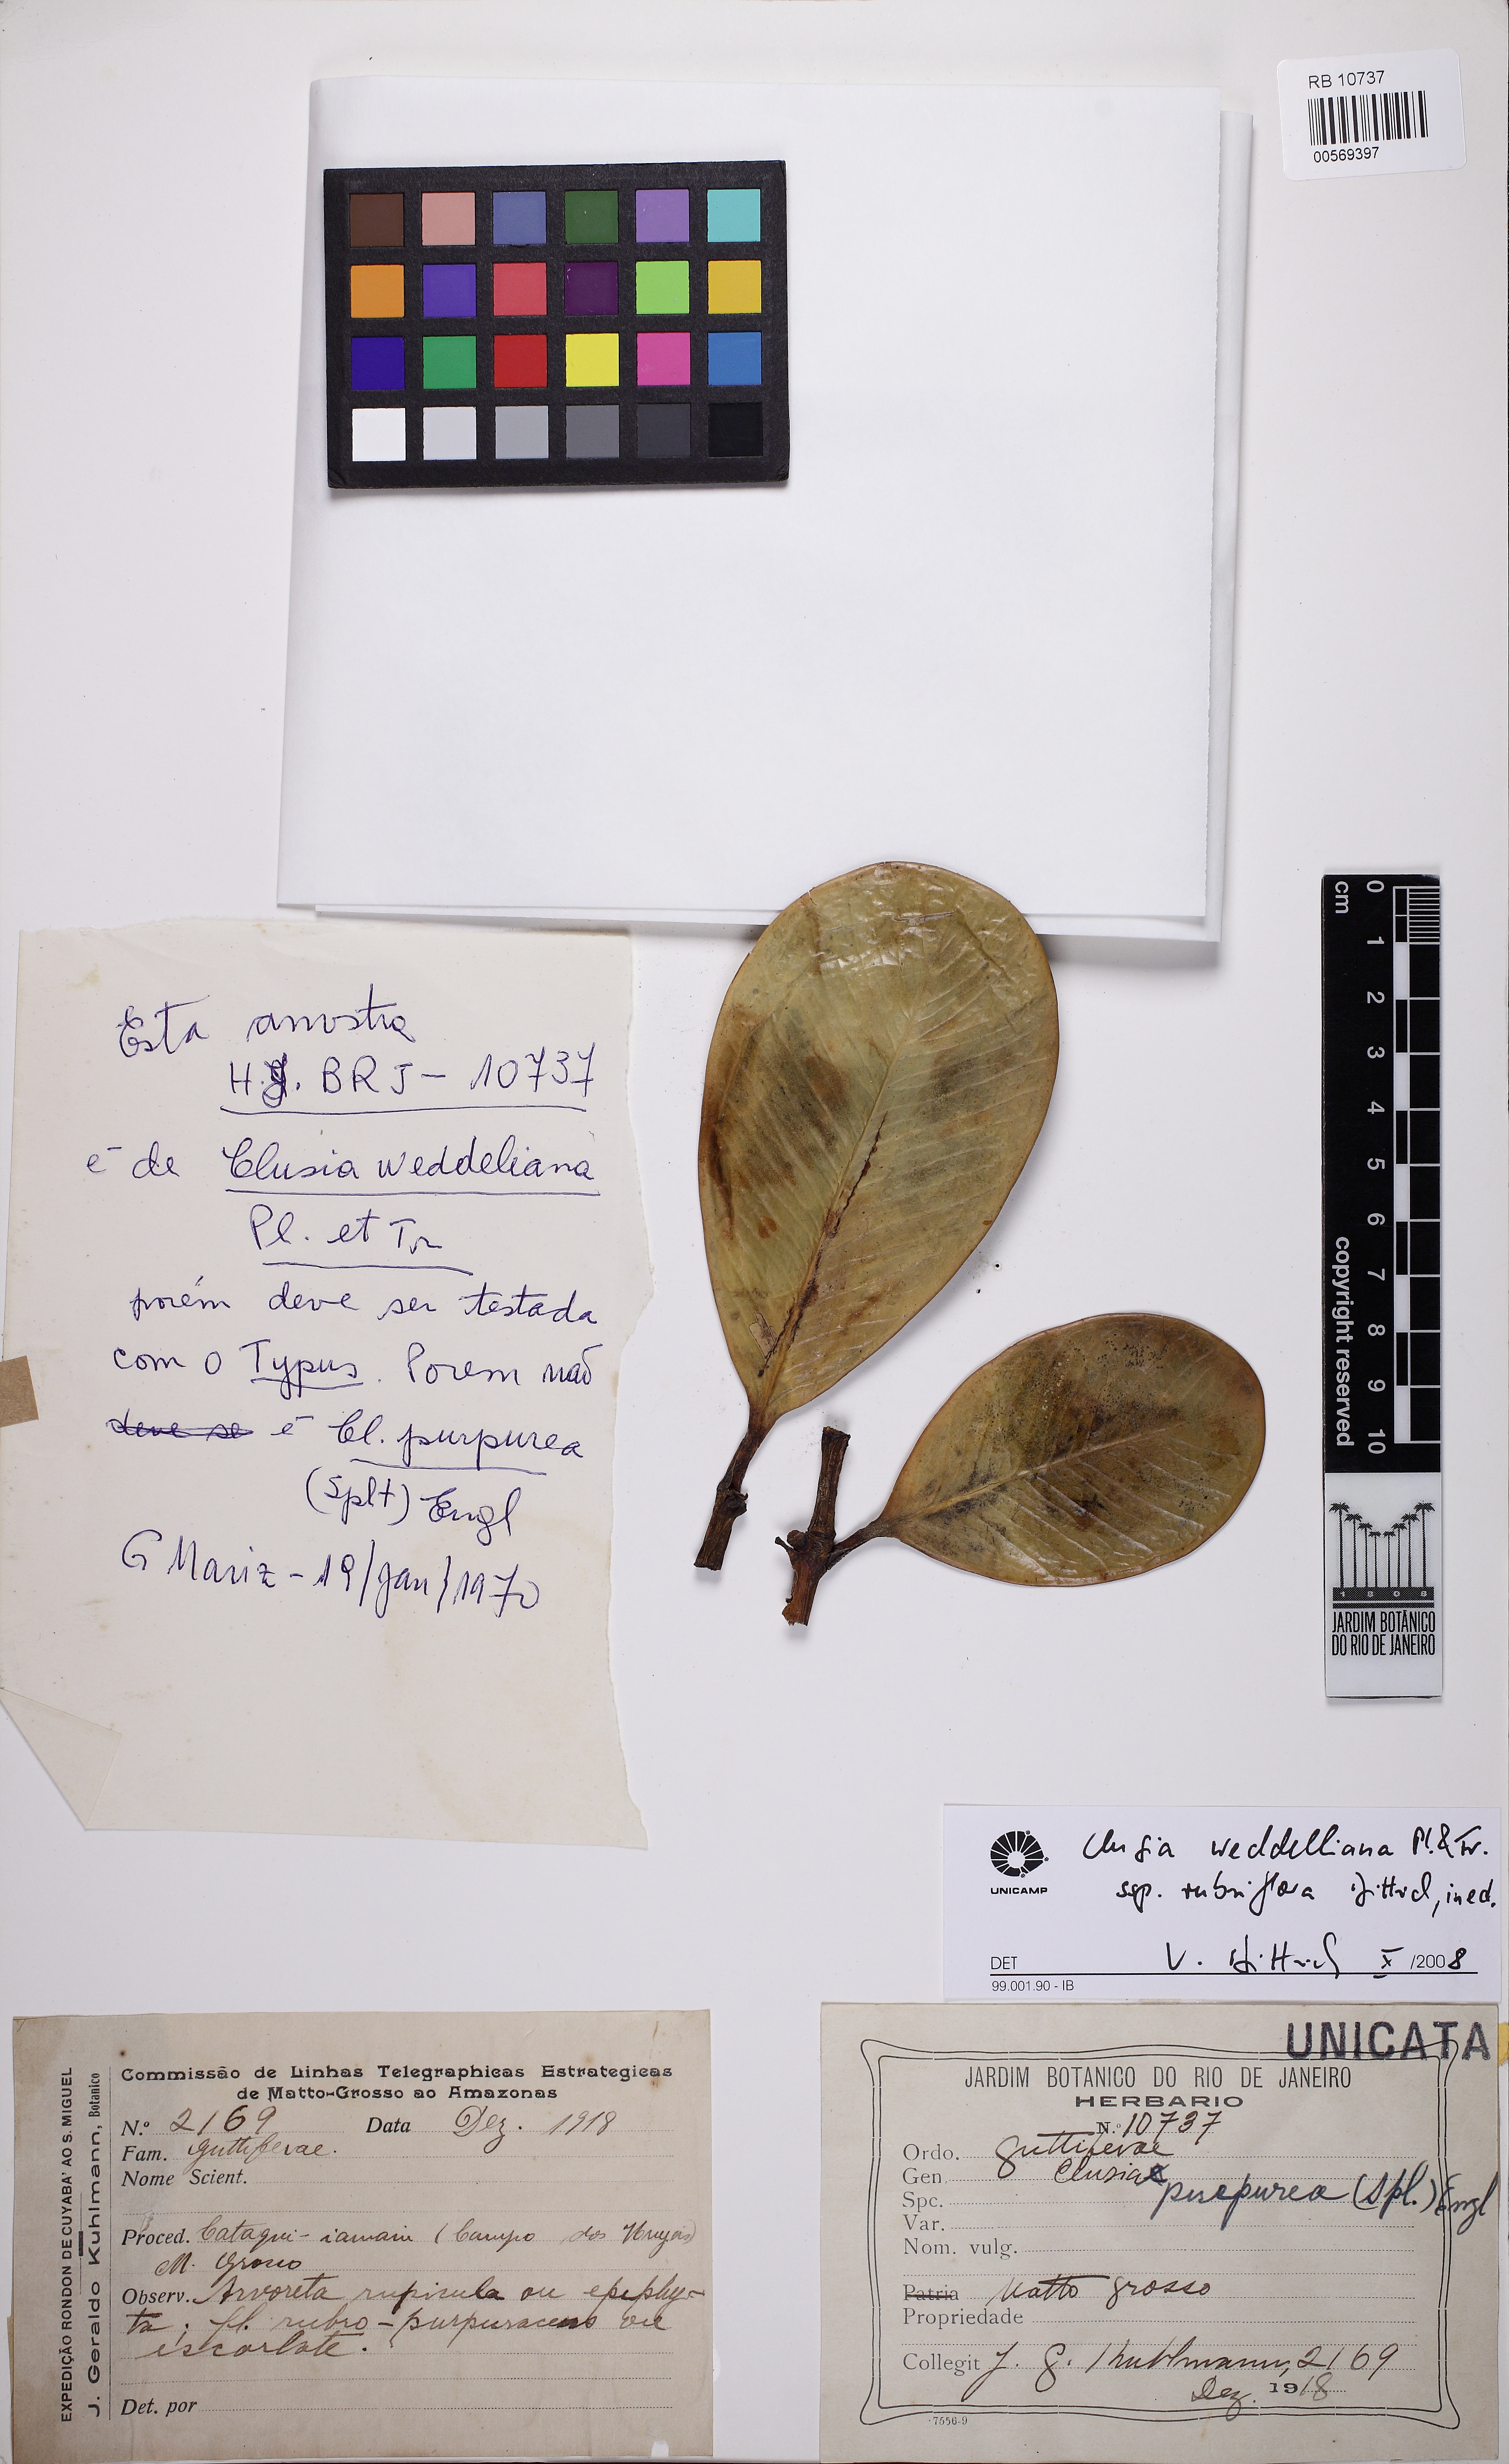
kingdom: Plantae
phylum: Tracheophyta
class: Magnoliopsida
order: Malpighiales
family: Clusiaceae
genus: Clusia
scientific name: Clusia weddelliana
